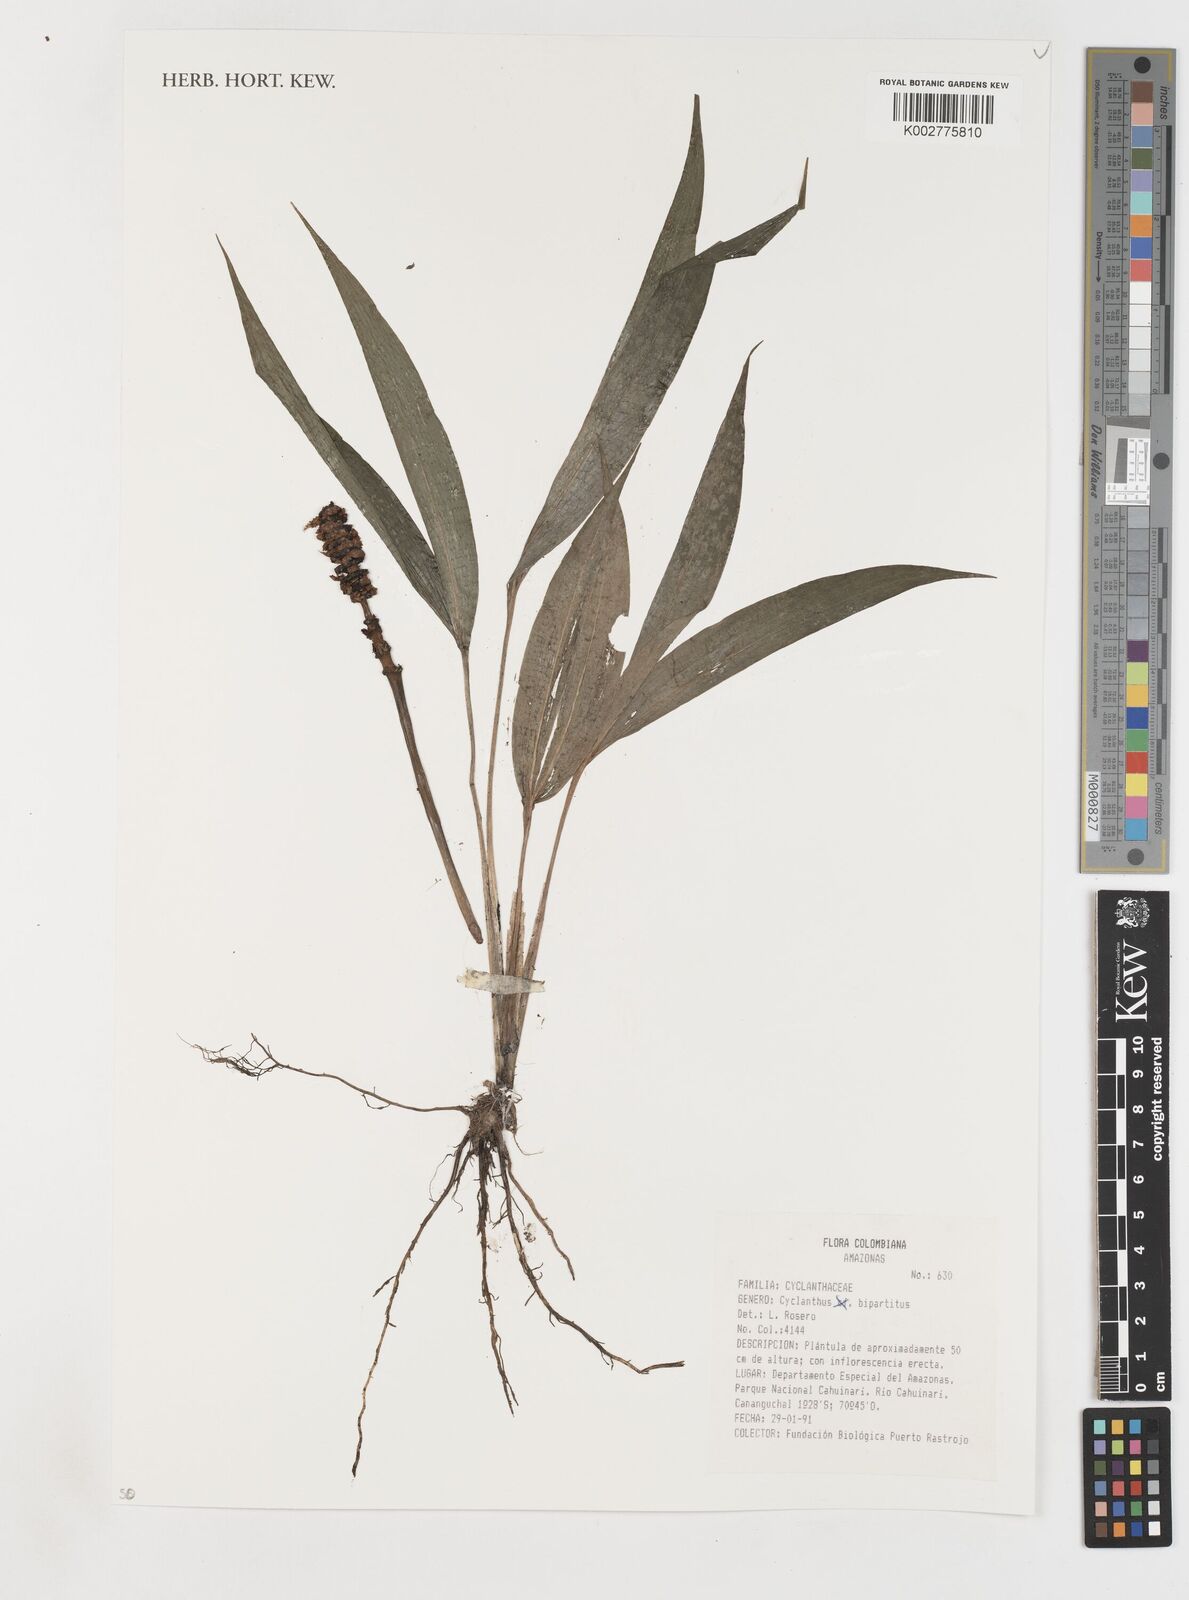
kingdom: Plantae
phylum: Tracheophyta
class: Liliopsida
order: Pandanales
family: Cyclanthaceae
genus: Cyclanthus
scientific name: Cyclanthus bipartitus
